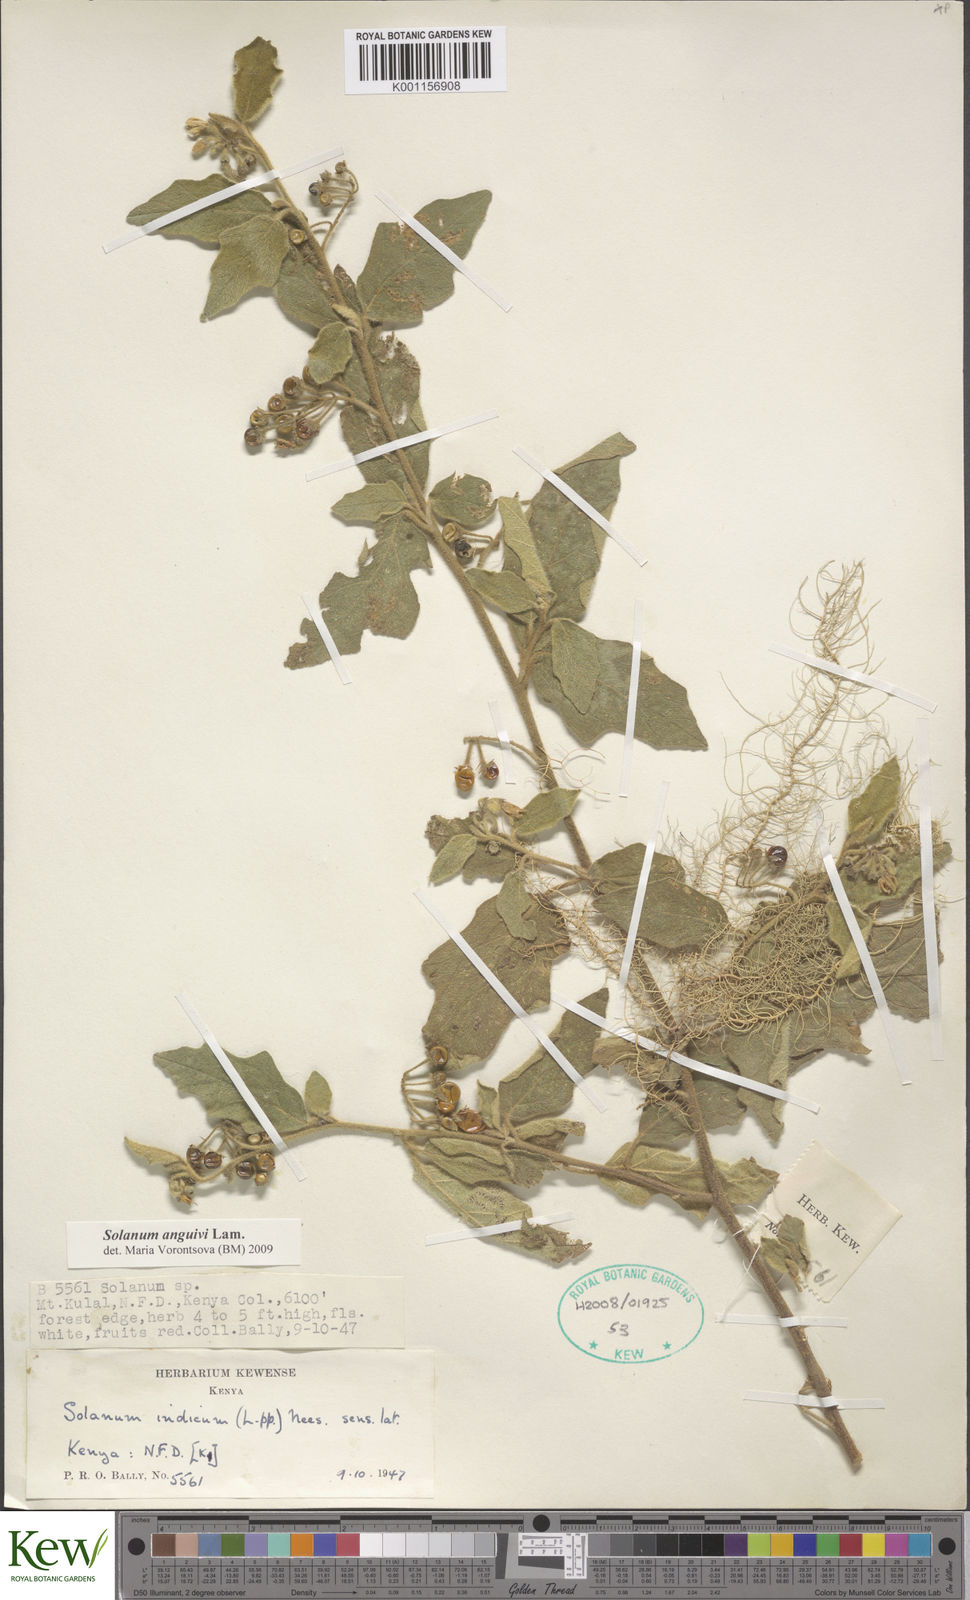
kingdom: Plantae
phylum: Tracheophyta
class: Magnoliopsida
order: Solanales
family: Solanaceae
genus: Solanum
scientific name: Solanum anguivi
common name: Forest bitterberry
